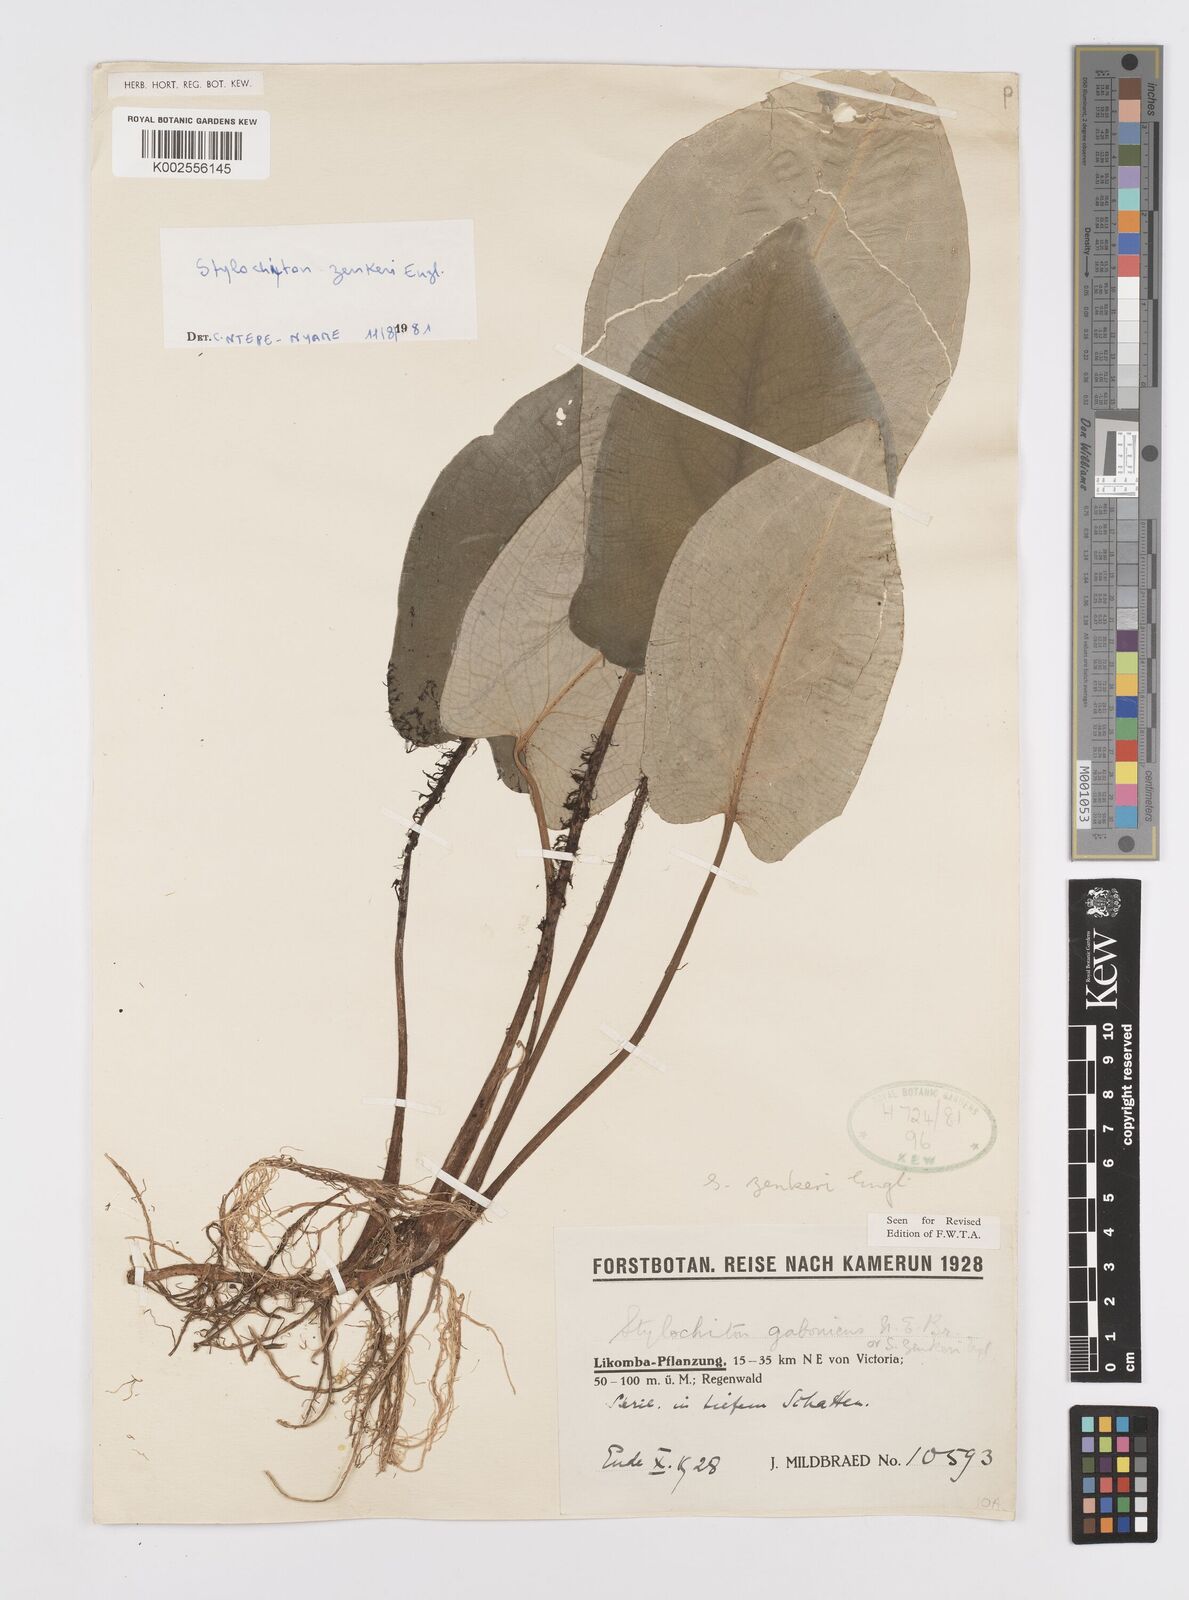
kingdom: Plantae
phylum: Tracheophyta
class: Liliopsida
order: Alismatales
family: Araceae
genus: Stylochaeton
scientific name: Stylochaeton zenkeri
